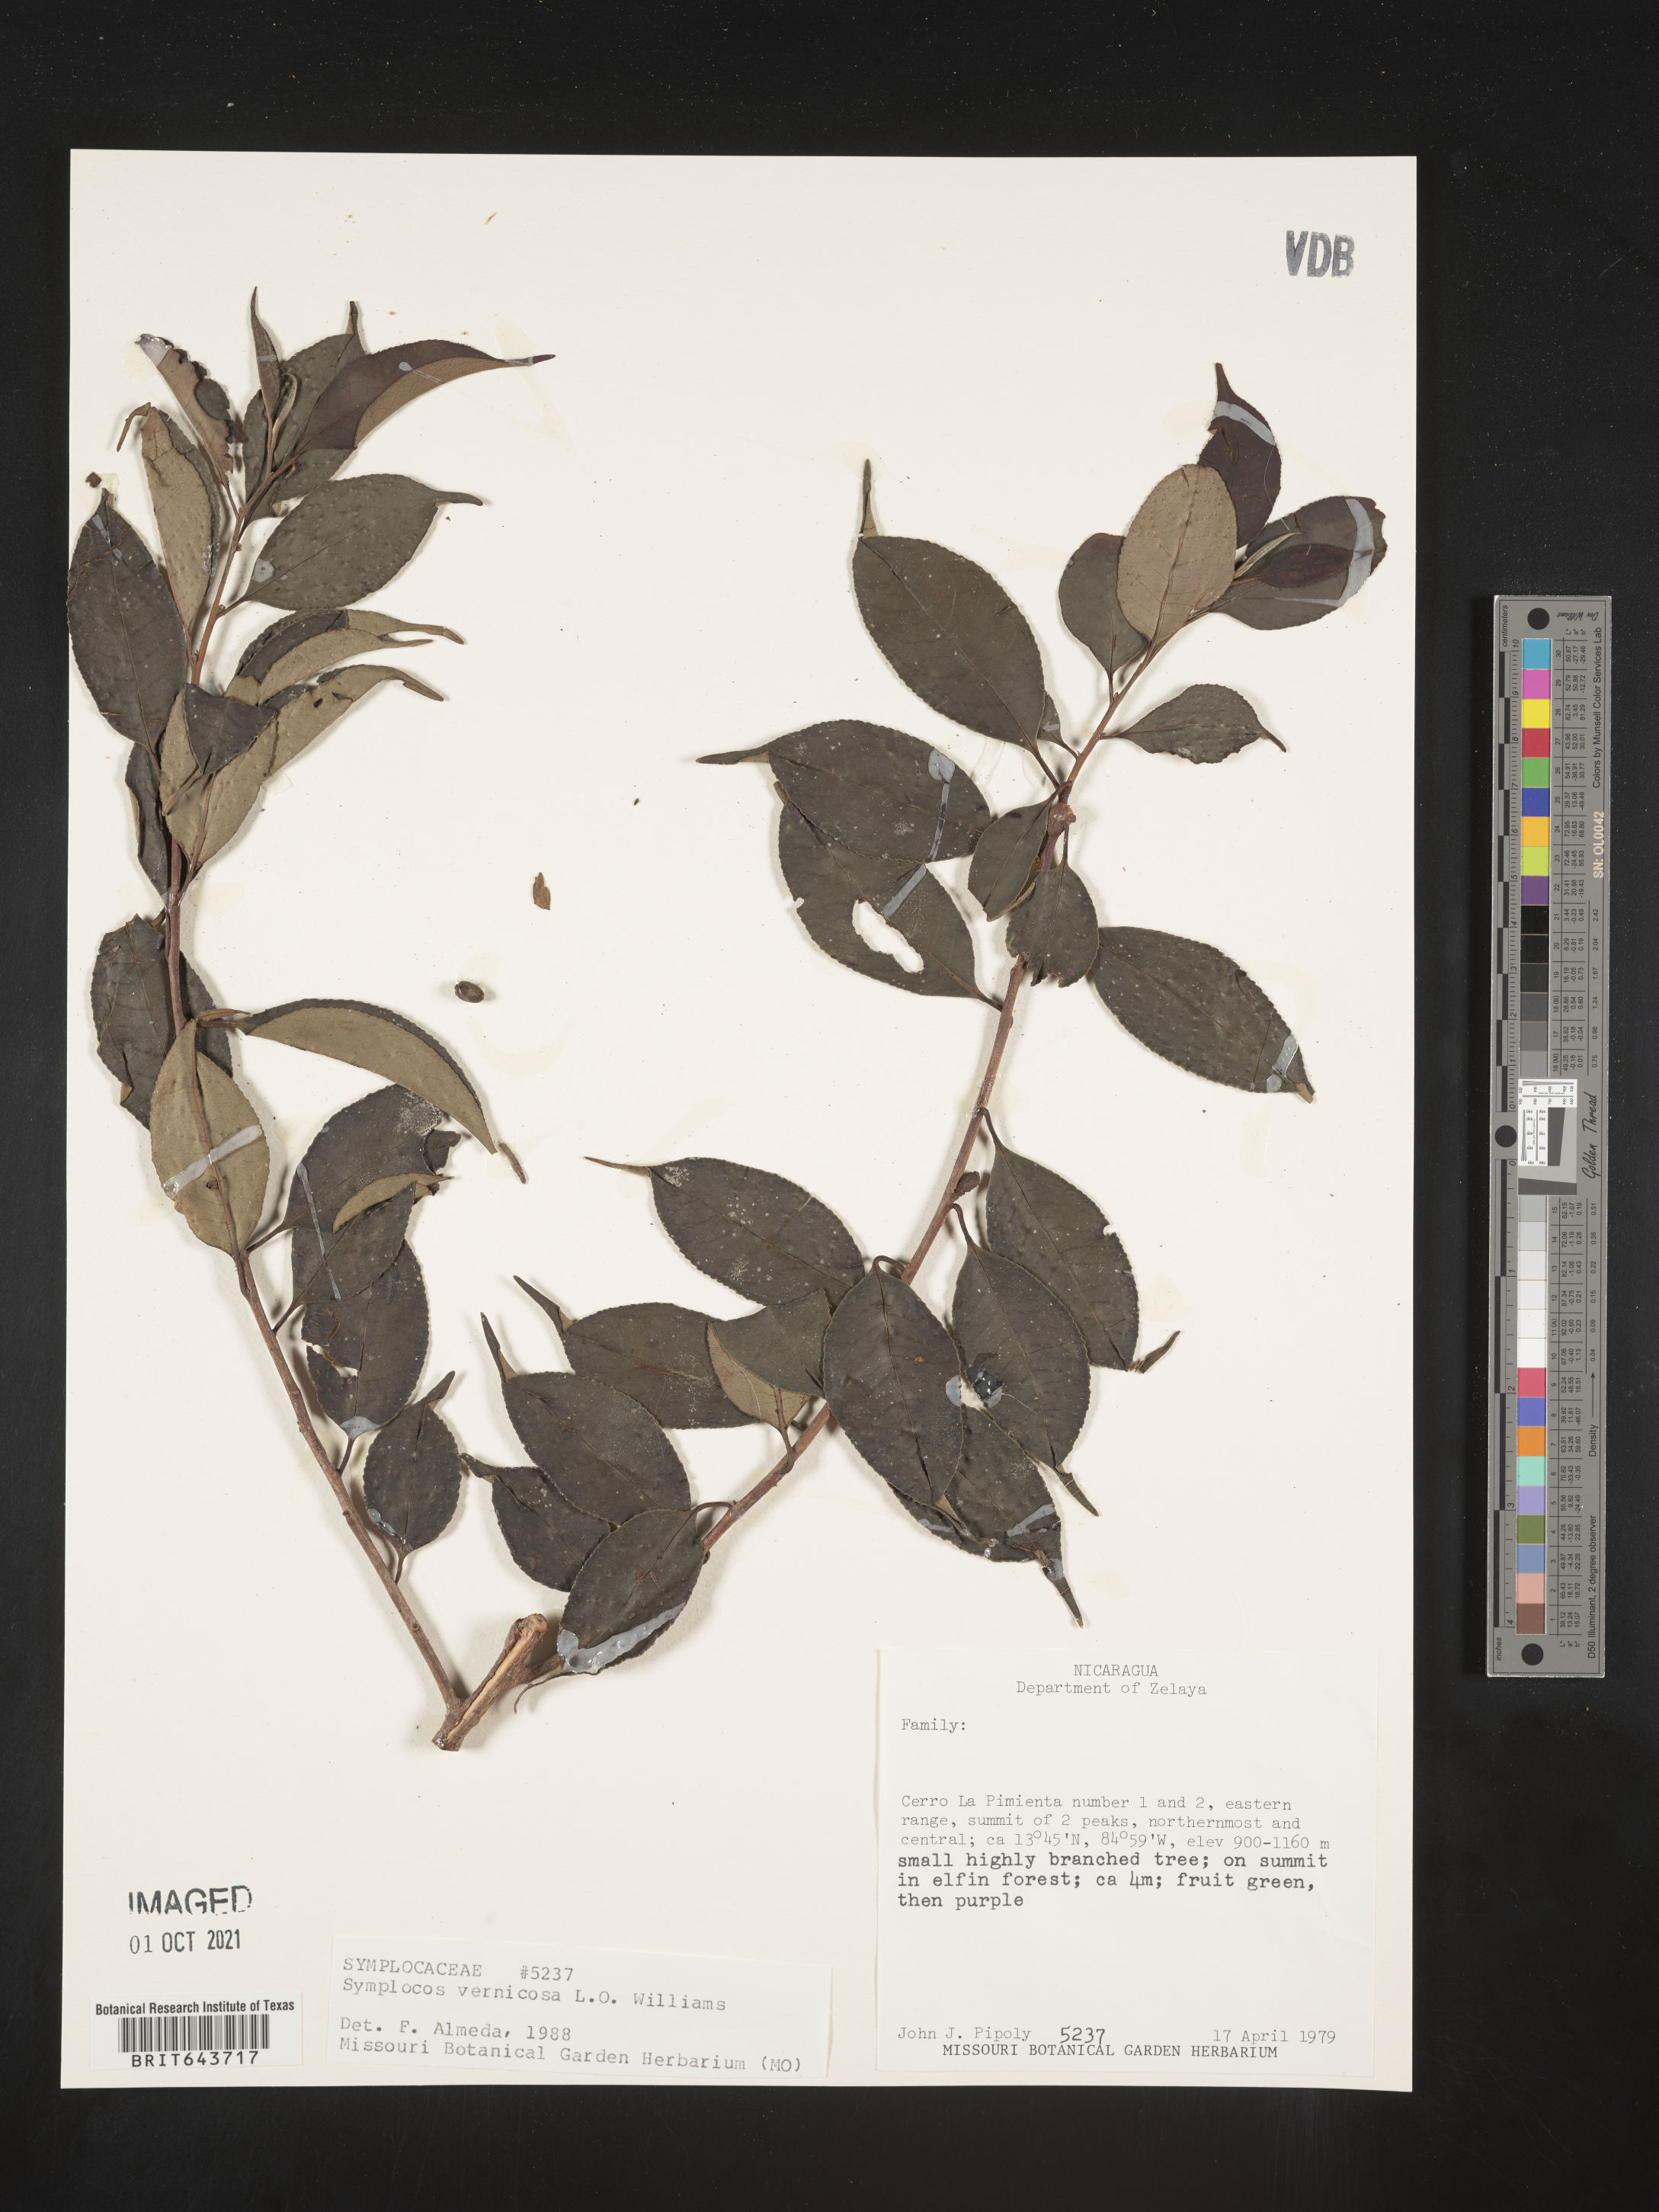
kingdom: Plantae
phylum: Tracheophyta
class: Magnoliopsida
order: Ericales
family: Symplocaceae
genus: Symplocos
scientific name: Symplocos
